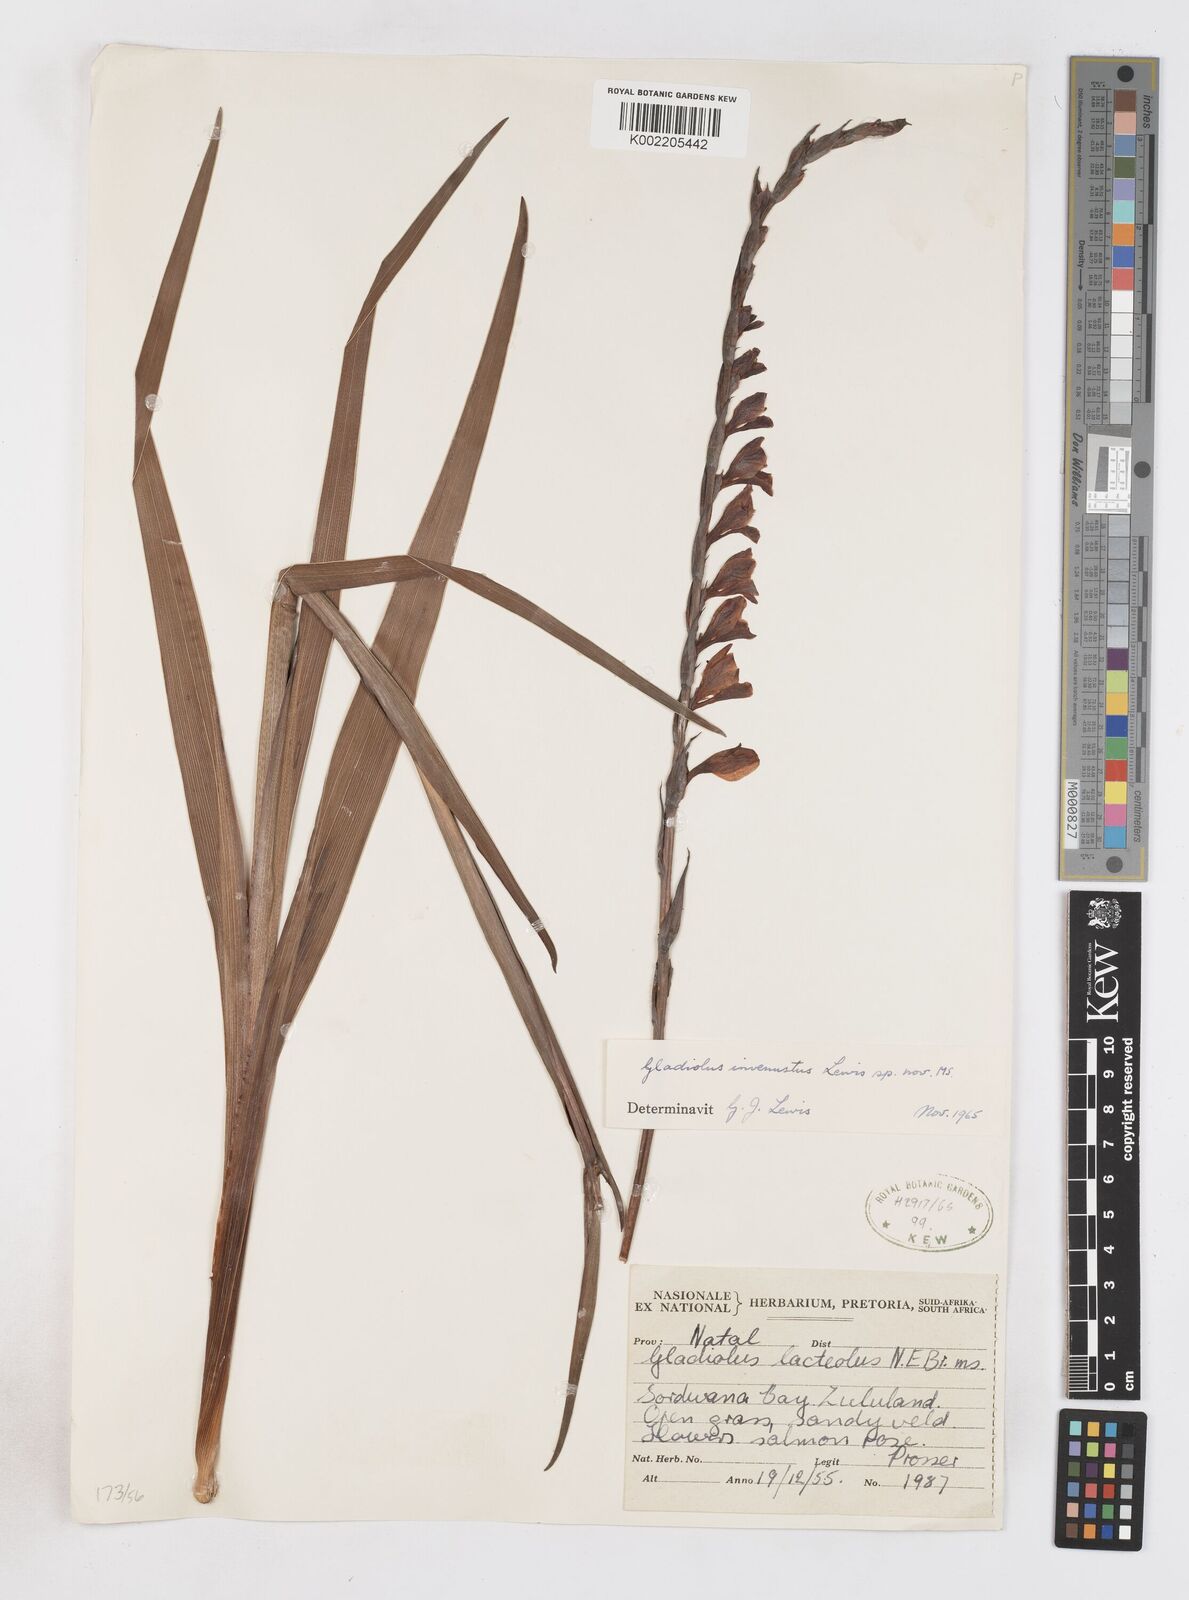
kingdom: Plantae
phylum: Tracheophyta
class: Liliopsida
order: Asparagales
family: Iridaceae
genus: Gladiolus
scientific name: Gladiolus densiflorus
